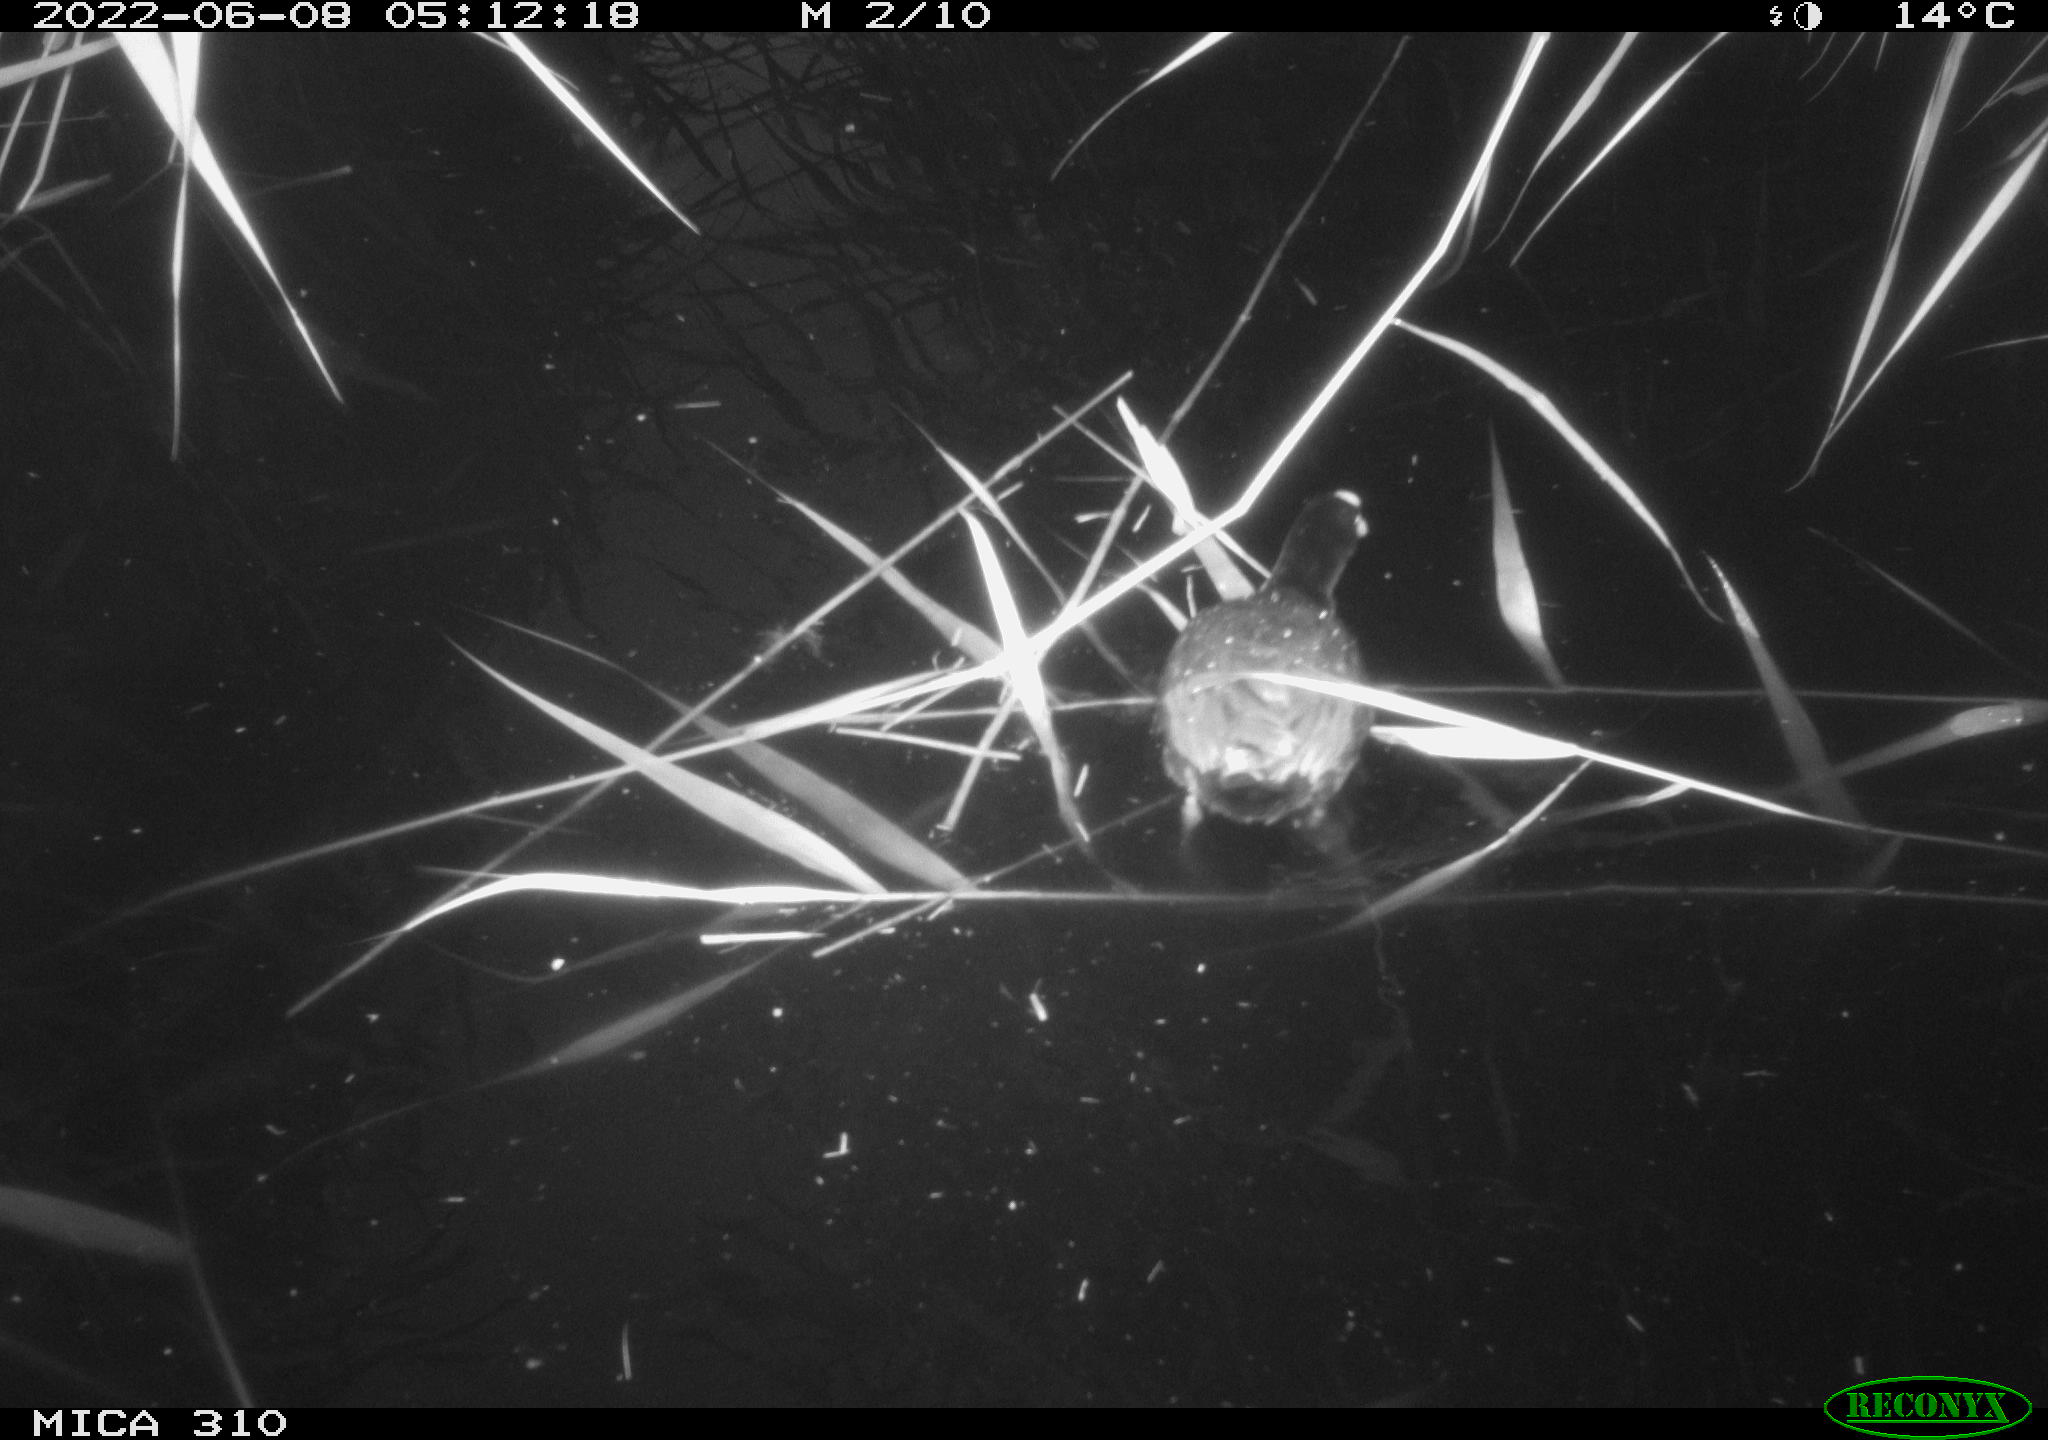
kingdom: Animalia
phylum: Chordata
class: Aves
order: Gruiformes
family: Rallidae
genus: Fulica
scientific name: Fulica atra
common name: Eurasian coot
